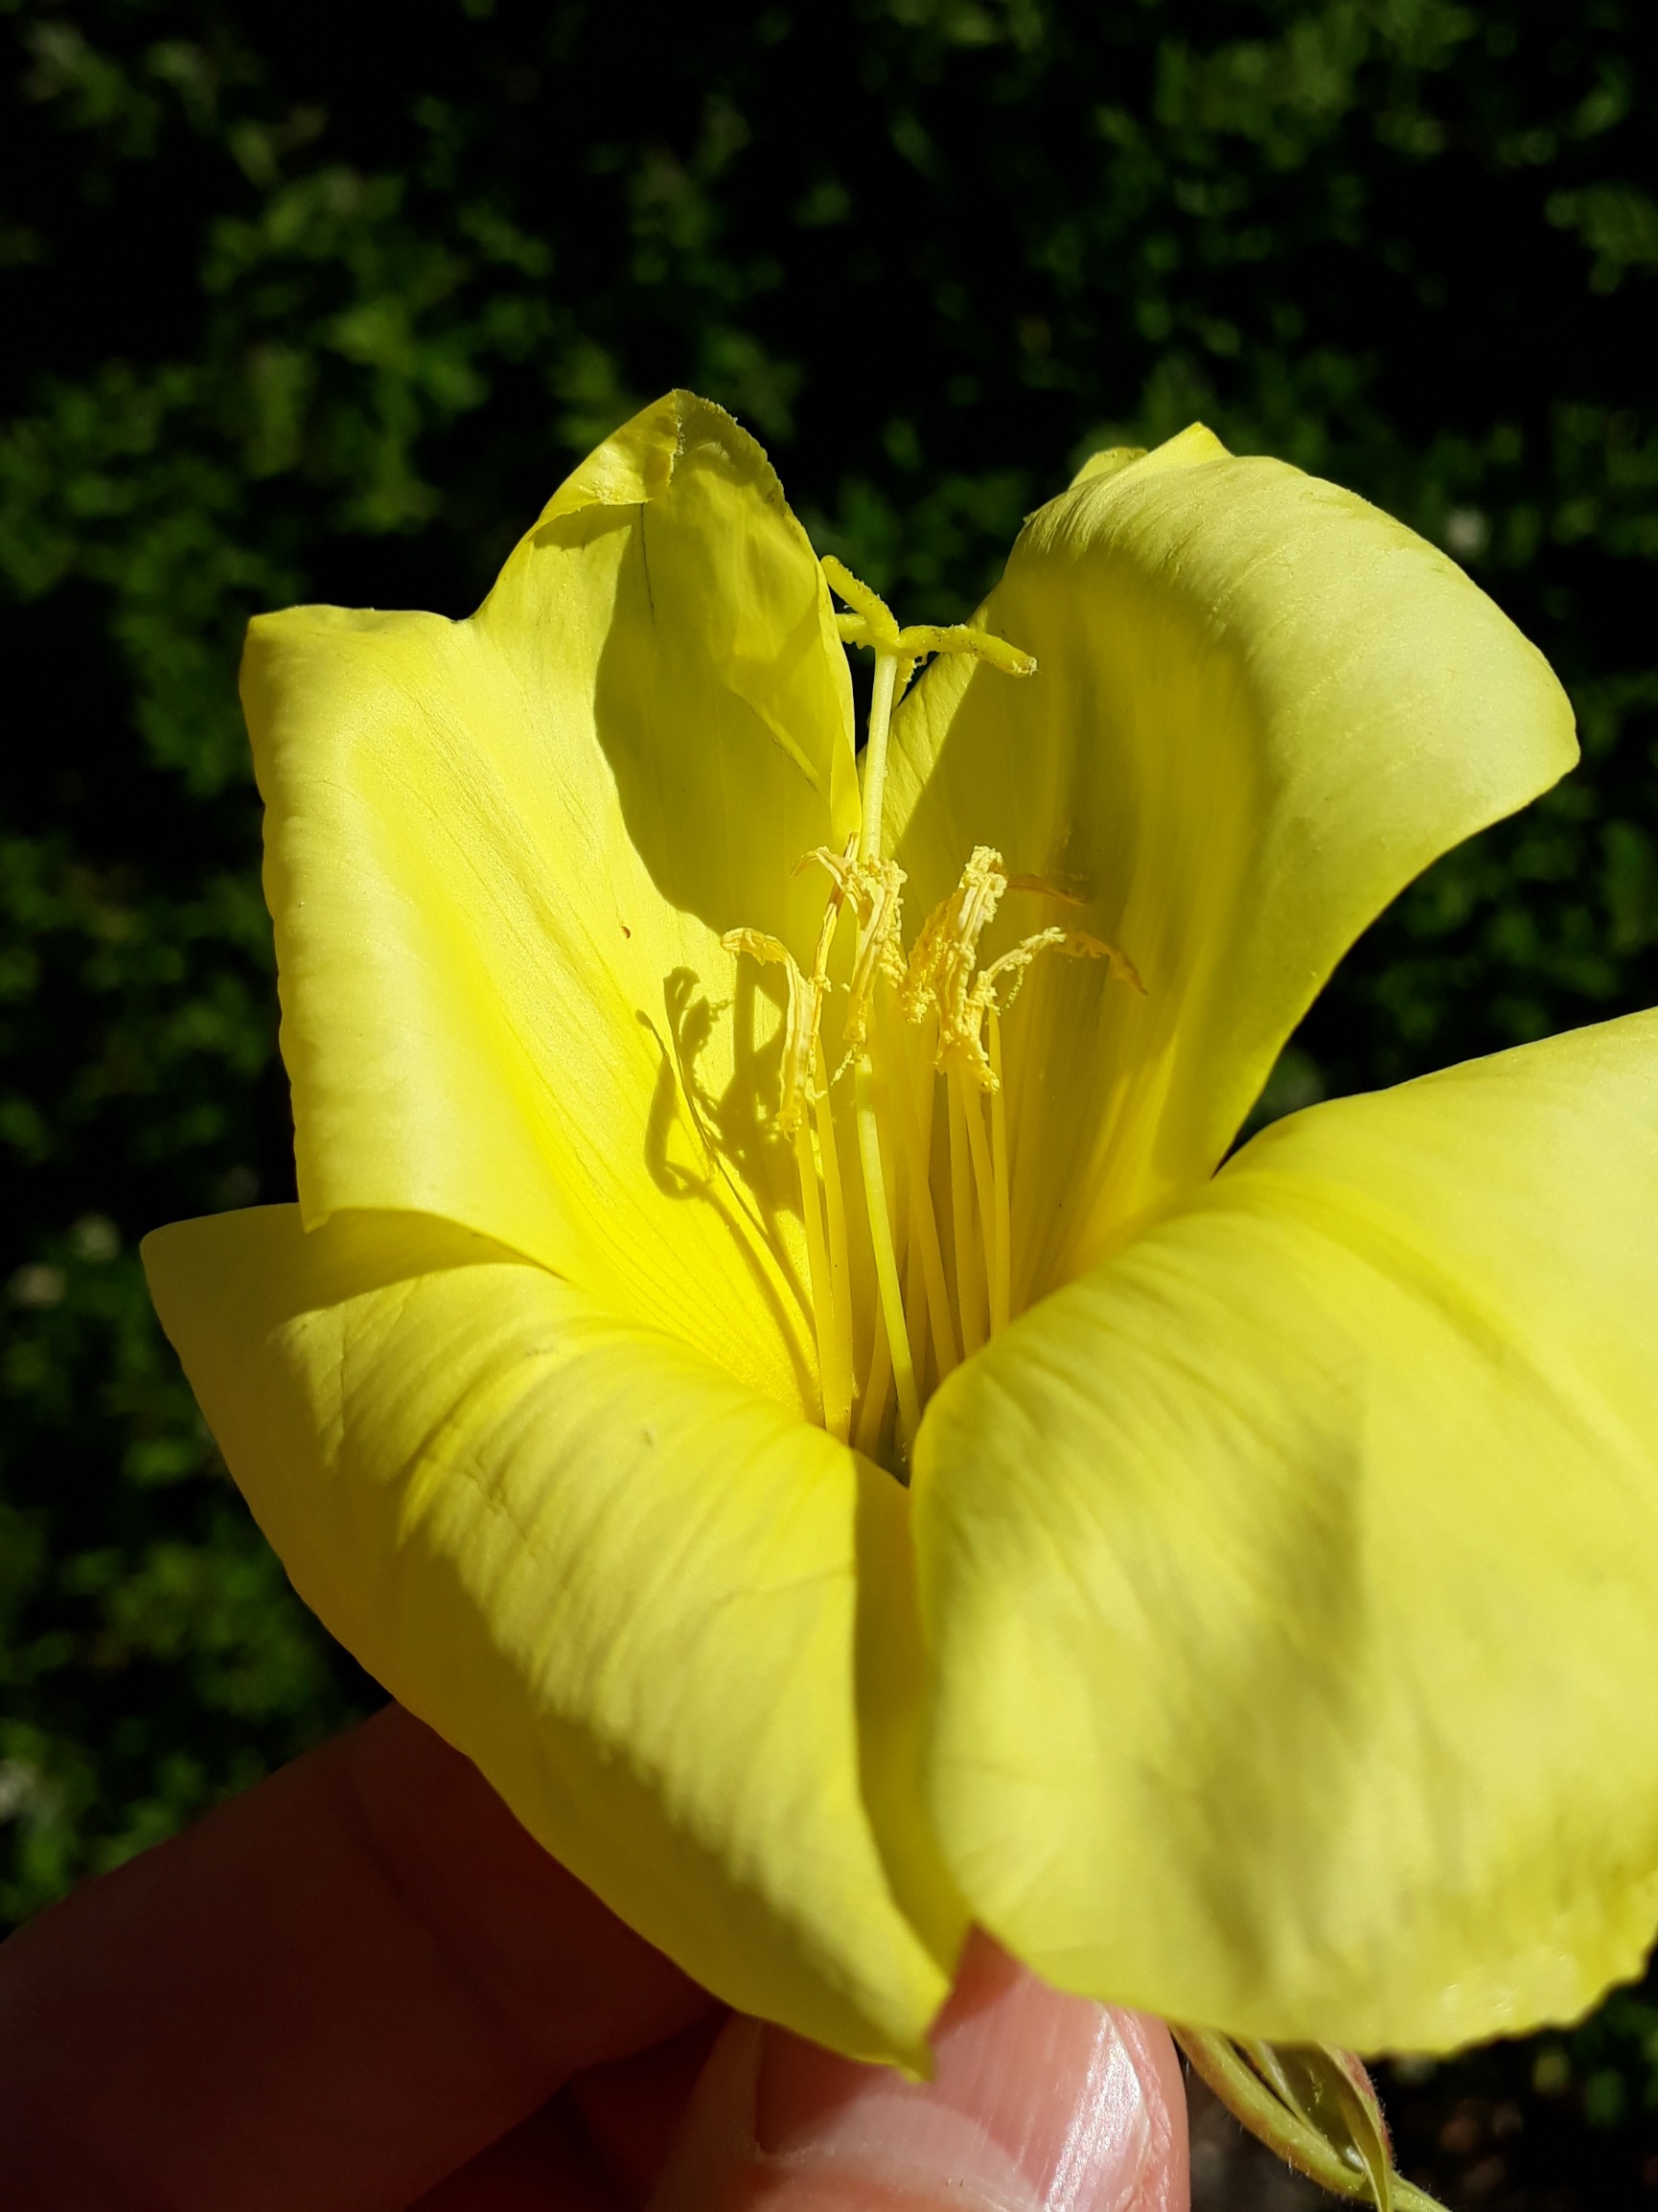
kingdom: Plantae
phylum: Tracheophyta
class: Magnoliopsida
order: Myrtales
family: Onagraceae
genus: Oenothera
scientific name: Oenothera glazioviana
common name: Kæmpe-natlys
